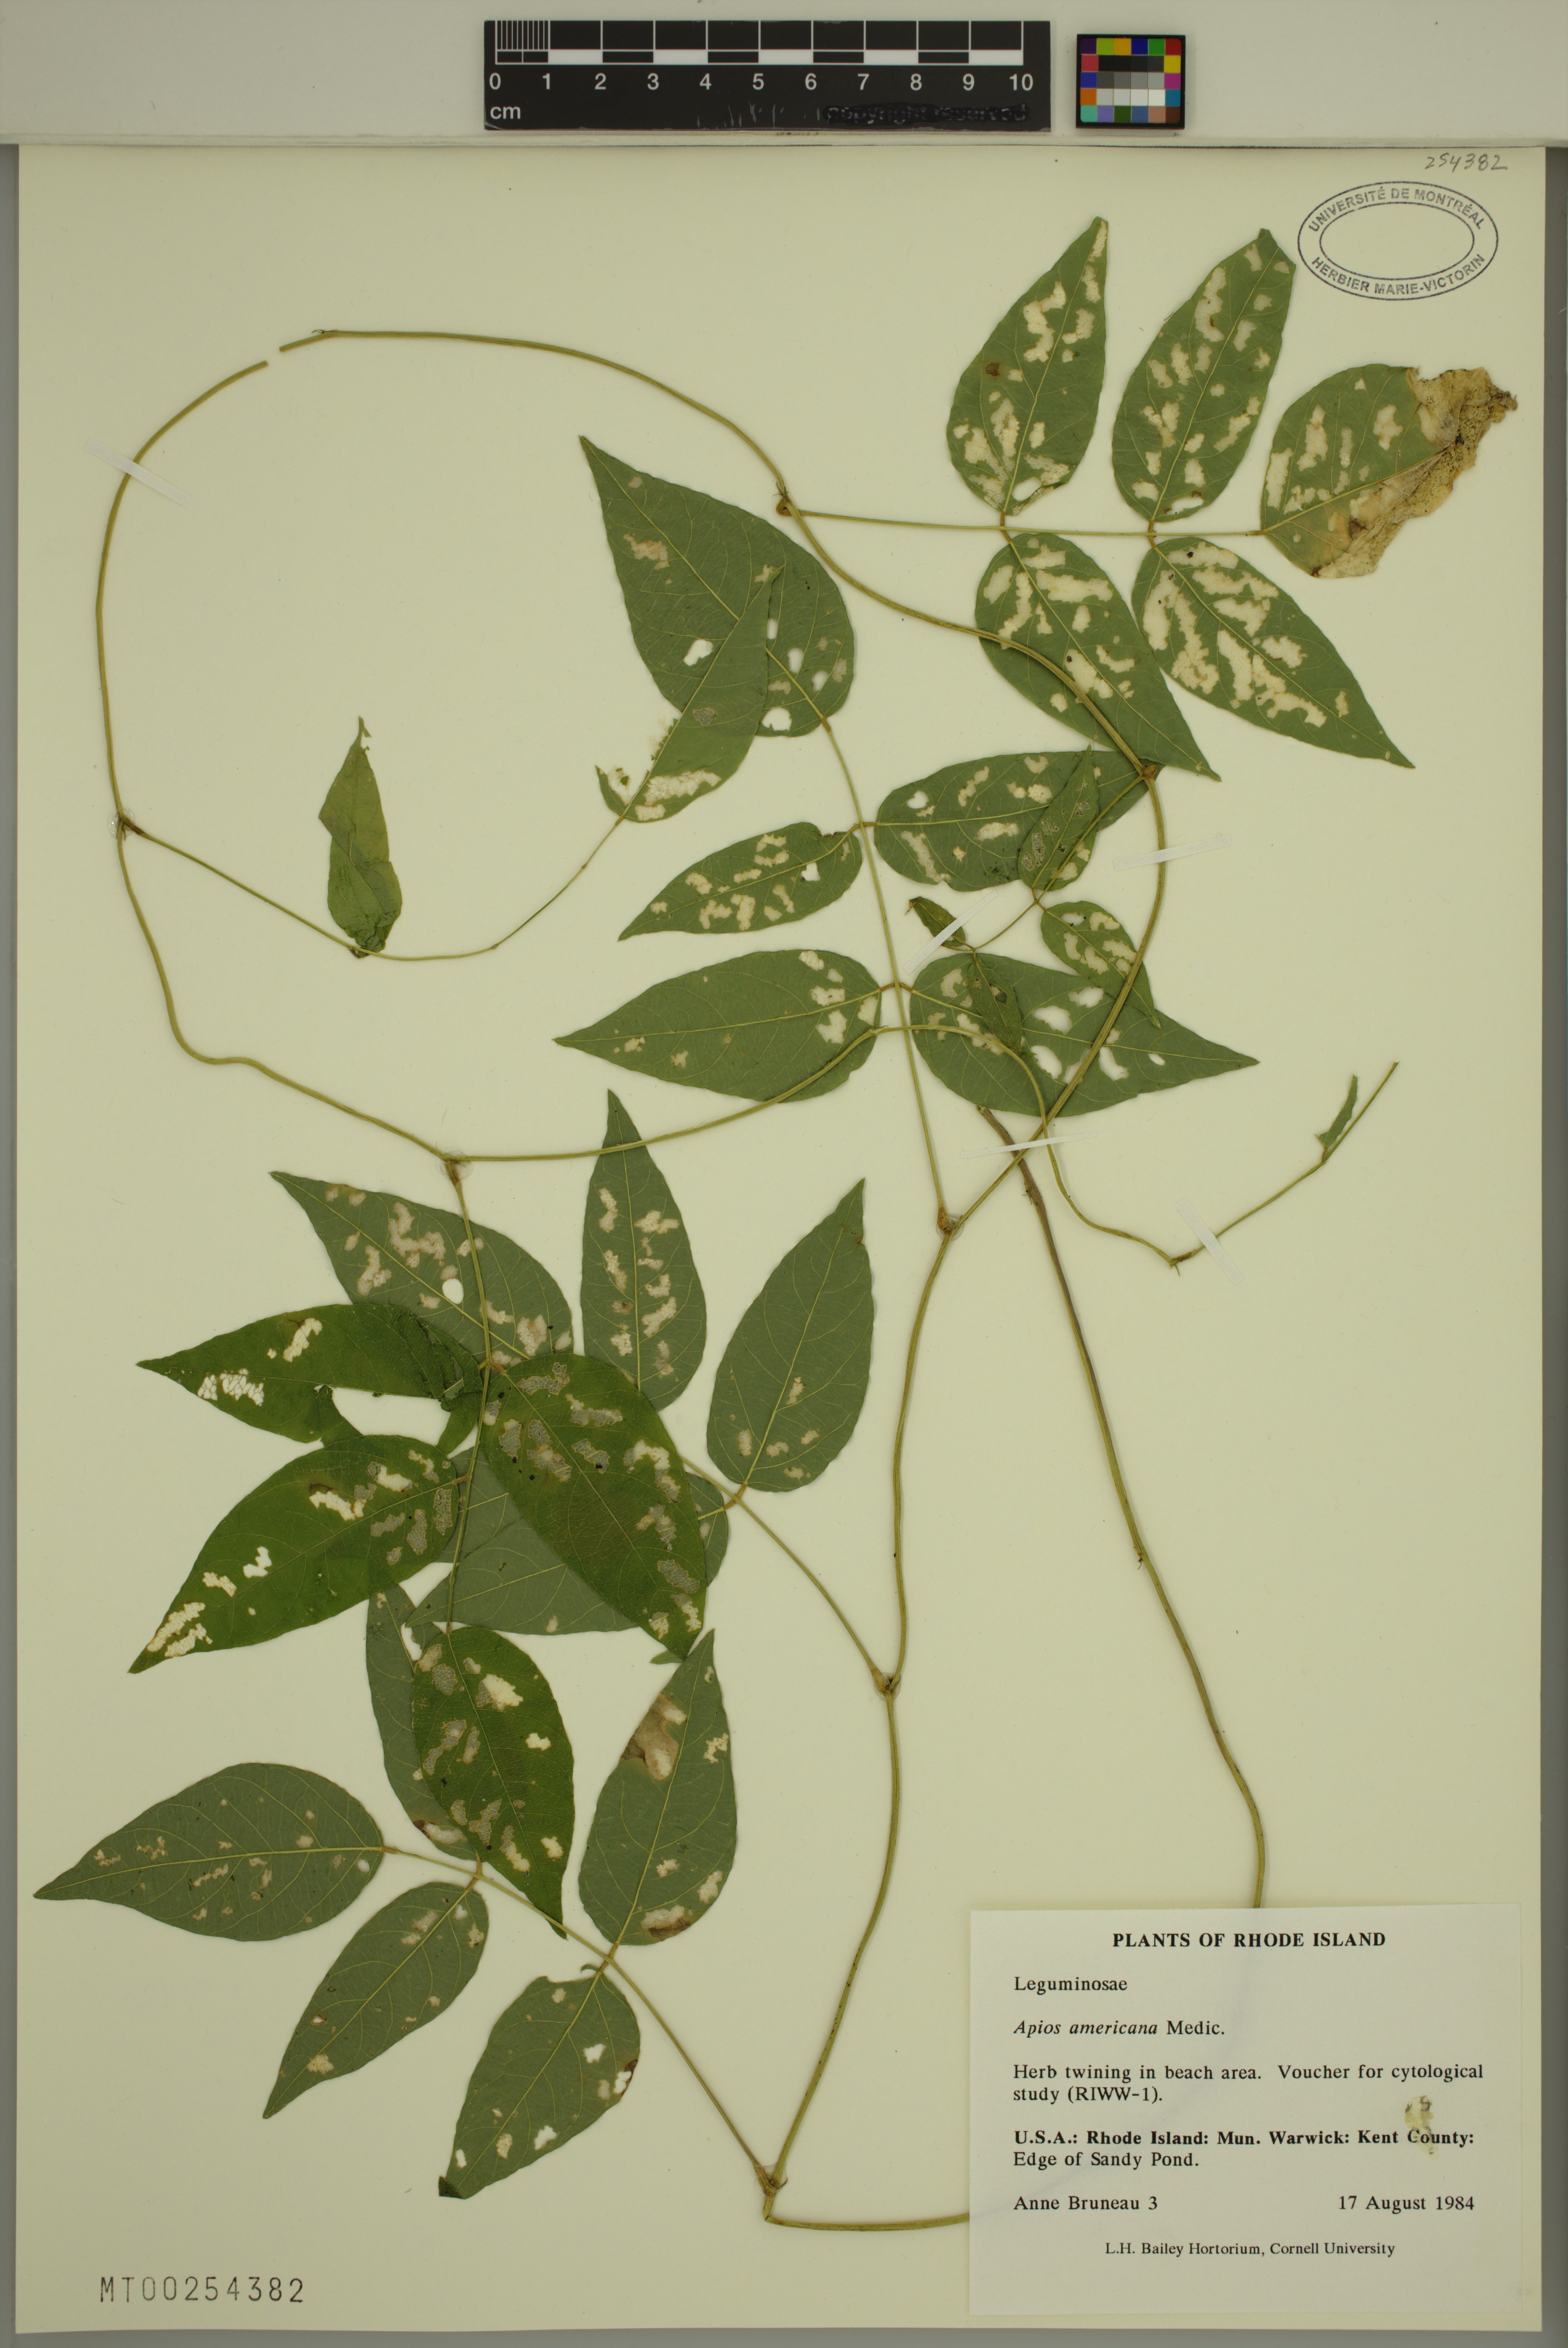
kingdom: Plantae
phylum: Tracheophyta
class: Magnoliopsida
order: Fabales
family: Fabaceae
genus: Apios
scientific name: Apios americana
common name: American potato-bean
